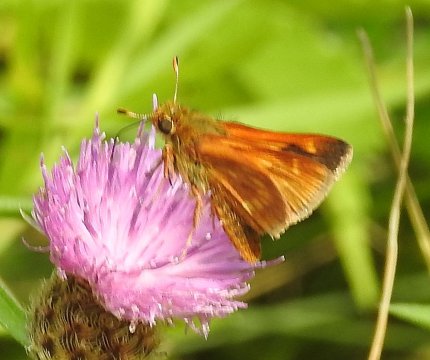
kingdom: Animalia
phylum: Arthropoda
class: Insecta
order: Lepidoptera
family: Hesperiidae
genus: Polites
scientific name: Polites
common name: Long Dash Skipper
